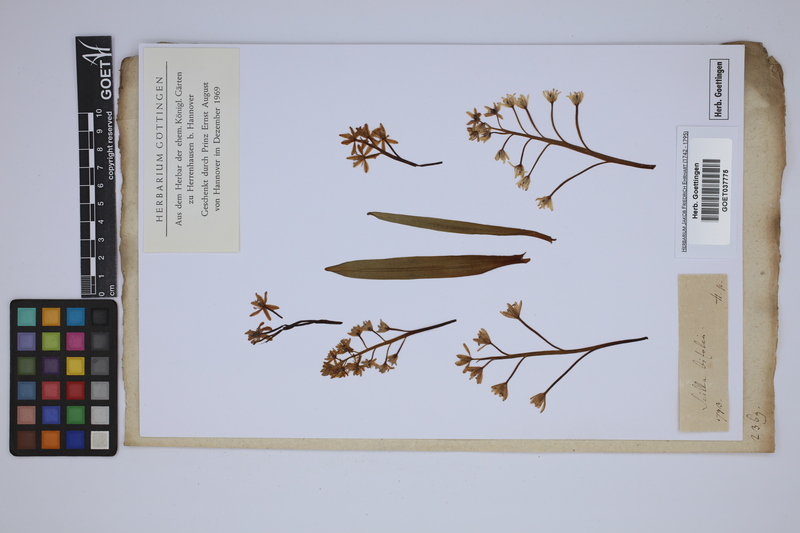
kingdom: Plantae
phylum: Tracheophyta
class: Liliopsida
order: Asparagales
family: Asparagaceae
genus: Scilla
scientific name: Scilla bifolia
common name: Alpine squill
